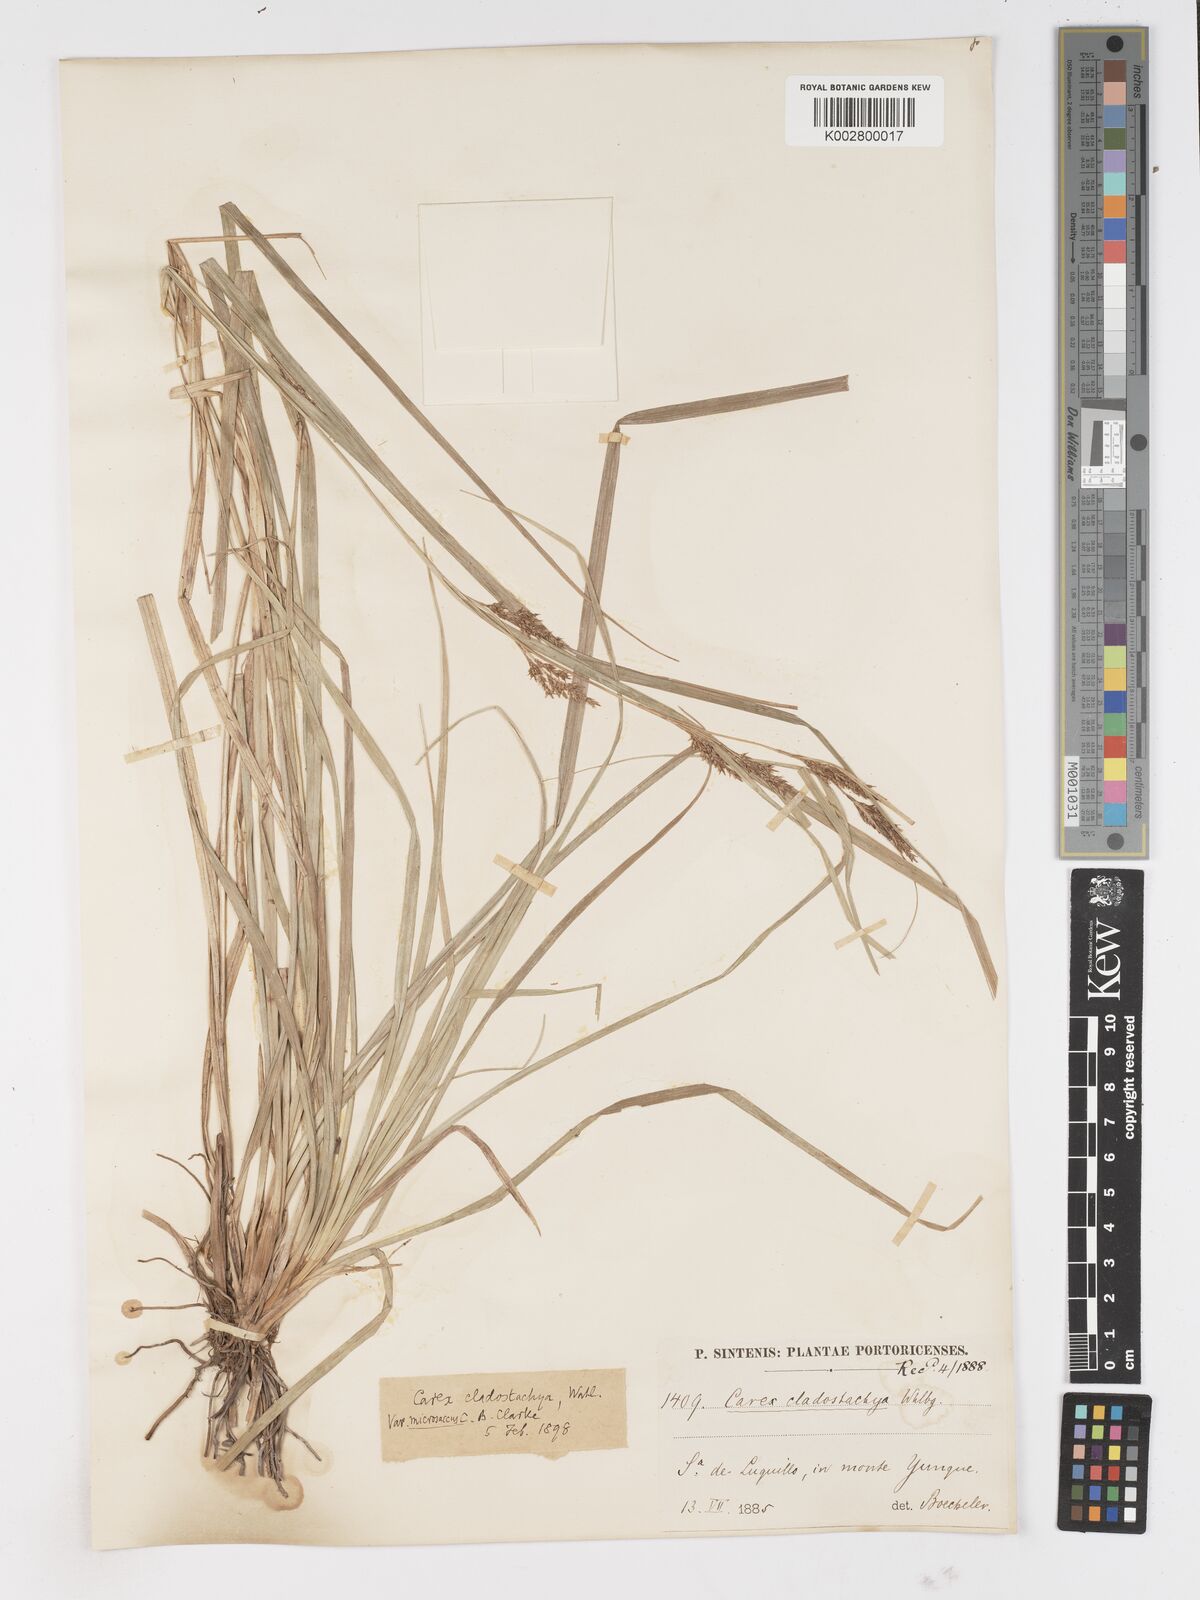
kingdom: Plantae
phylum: Tracheophyta
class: Liliopsida
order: Poales
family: Cyperaceae
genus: Carex
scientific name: Carex polystachya
